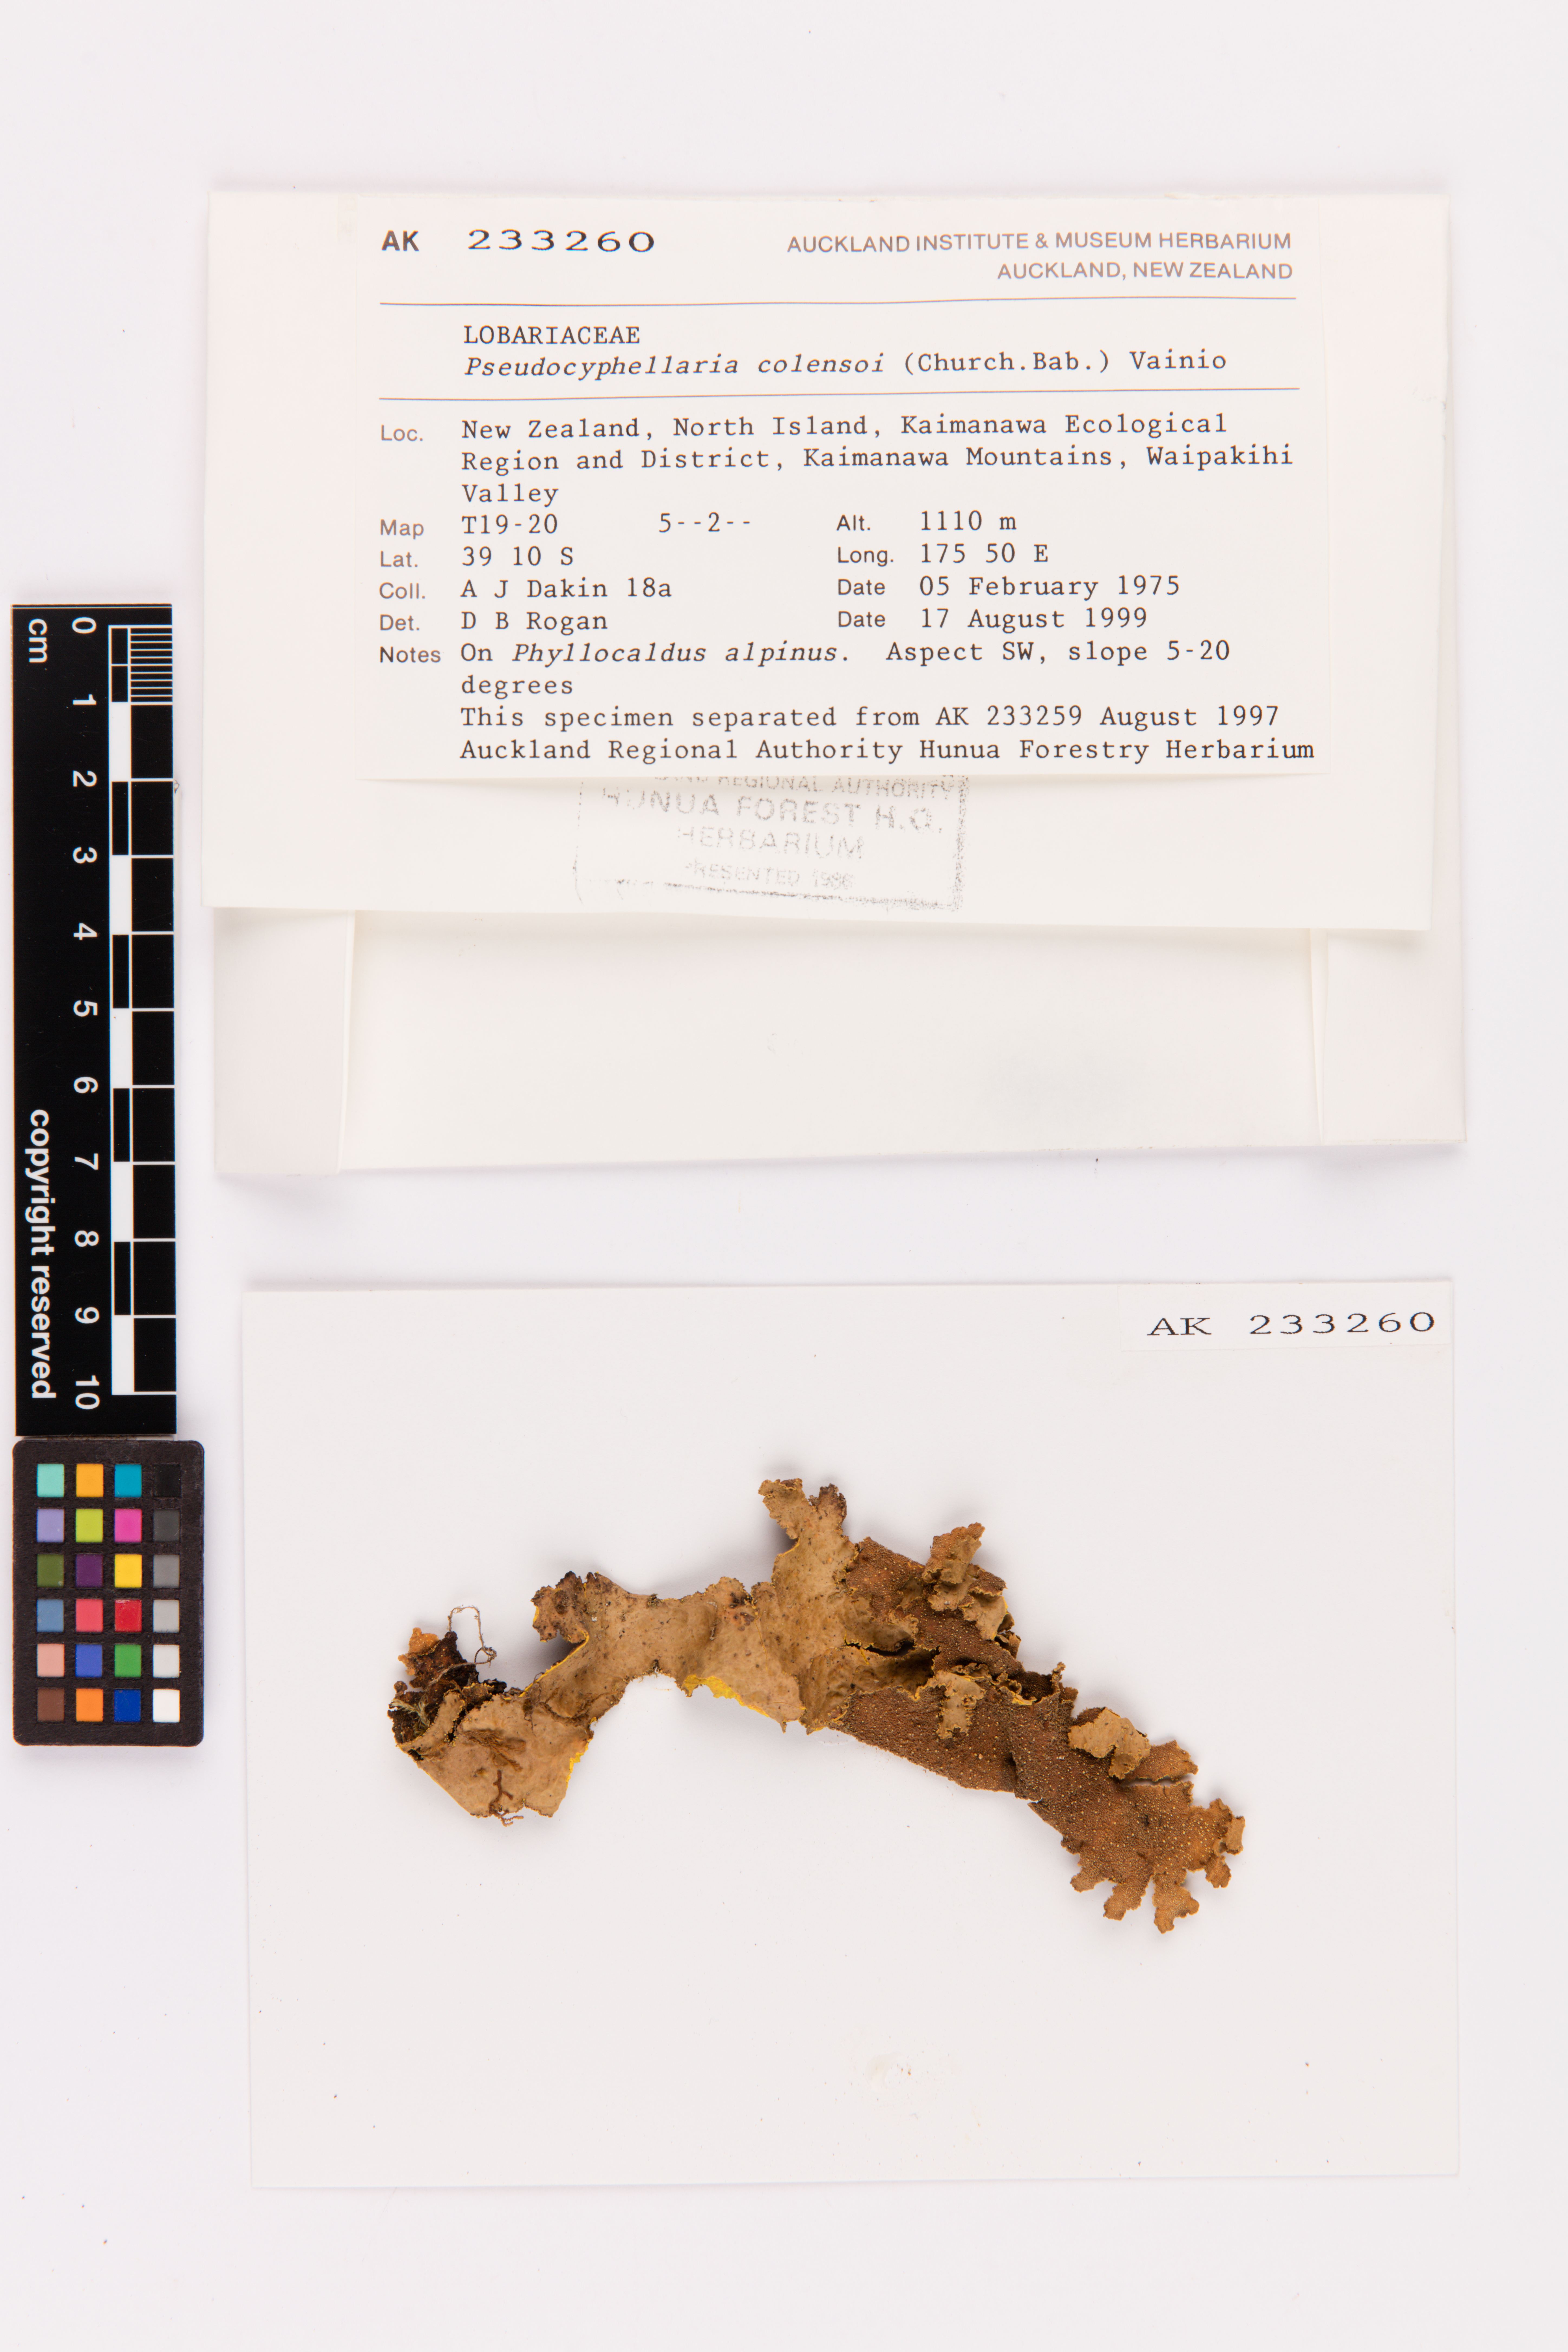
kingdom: Fungi
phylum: Ascomycota
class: Lecanoromycetes
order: Peltigerales
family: Lobariaceae
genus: Yarrumia
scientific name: Yarrumia colensoi
